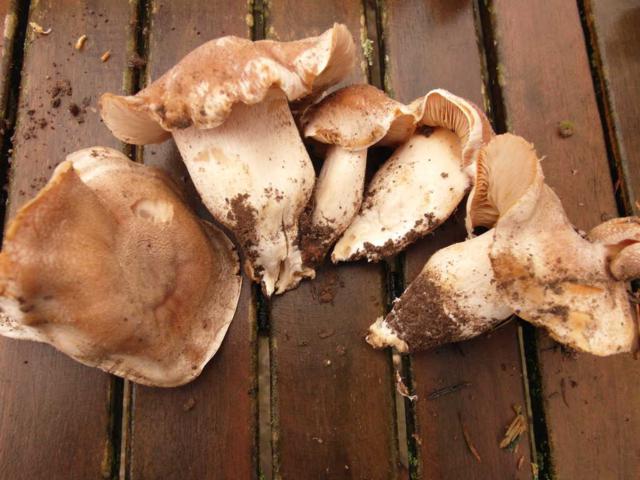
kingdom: Fungi
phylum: Basidiomycota
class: Agaricomycetes
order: Agaricales
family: Cortinariaceae
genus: Cortinarius
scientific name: Cortinarius
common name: jod-slørhat
